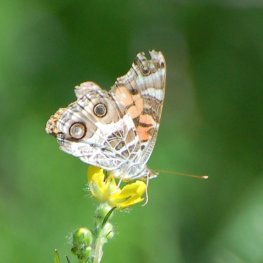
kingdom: Animalia
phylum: Arthropoda
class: Insecta
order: Lepidoptera
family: Nymphalidae
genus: Vanessa
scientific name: Vanessa virginiensis
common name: American Lady
